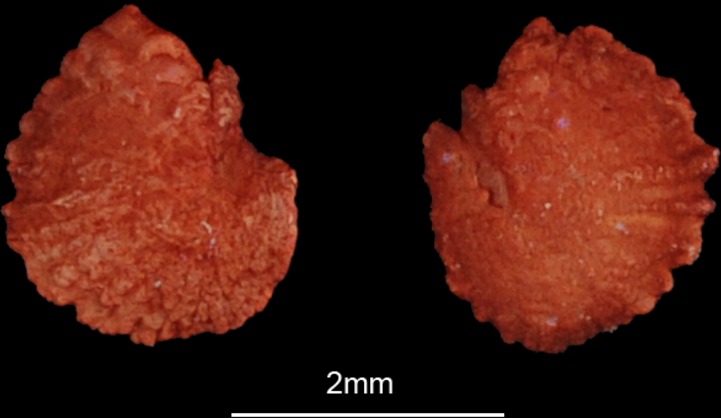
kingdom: Animalia
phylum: Chordata
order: Cypriniformes
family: Cyprinidae
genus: Oreoleuciscus
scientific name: Oreoleuciscus potanini
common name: Altai osman
